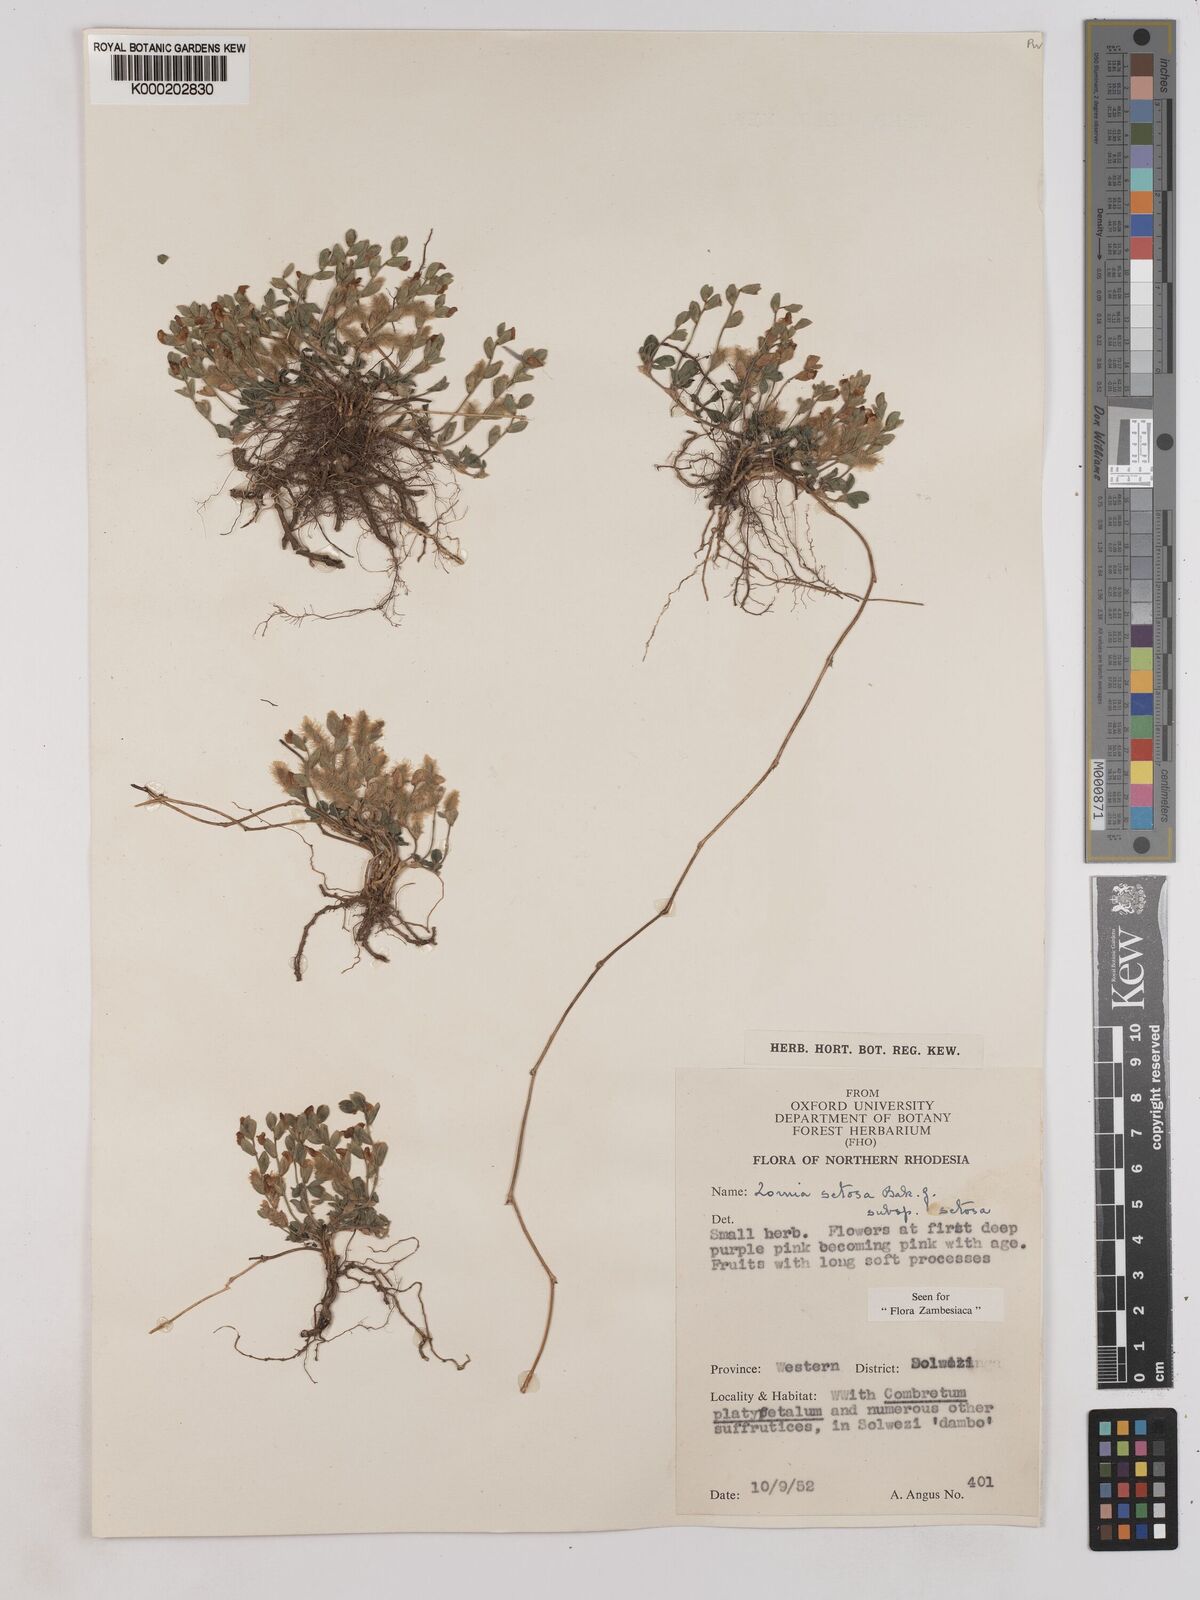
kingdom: Plantae
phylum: Tracheophyta
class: Magnoliopsida
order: Fabales
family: Fabaceae
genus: Zornia
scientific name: Zornia setosa
